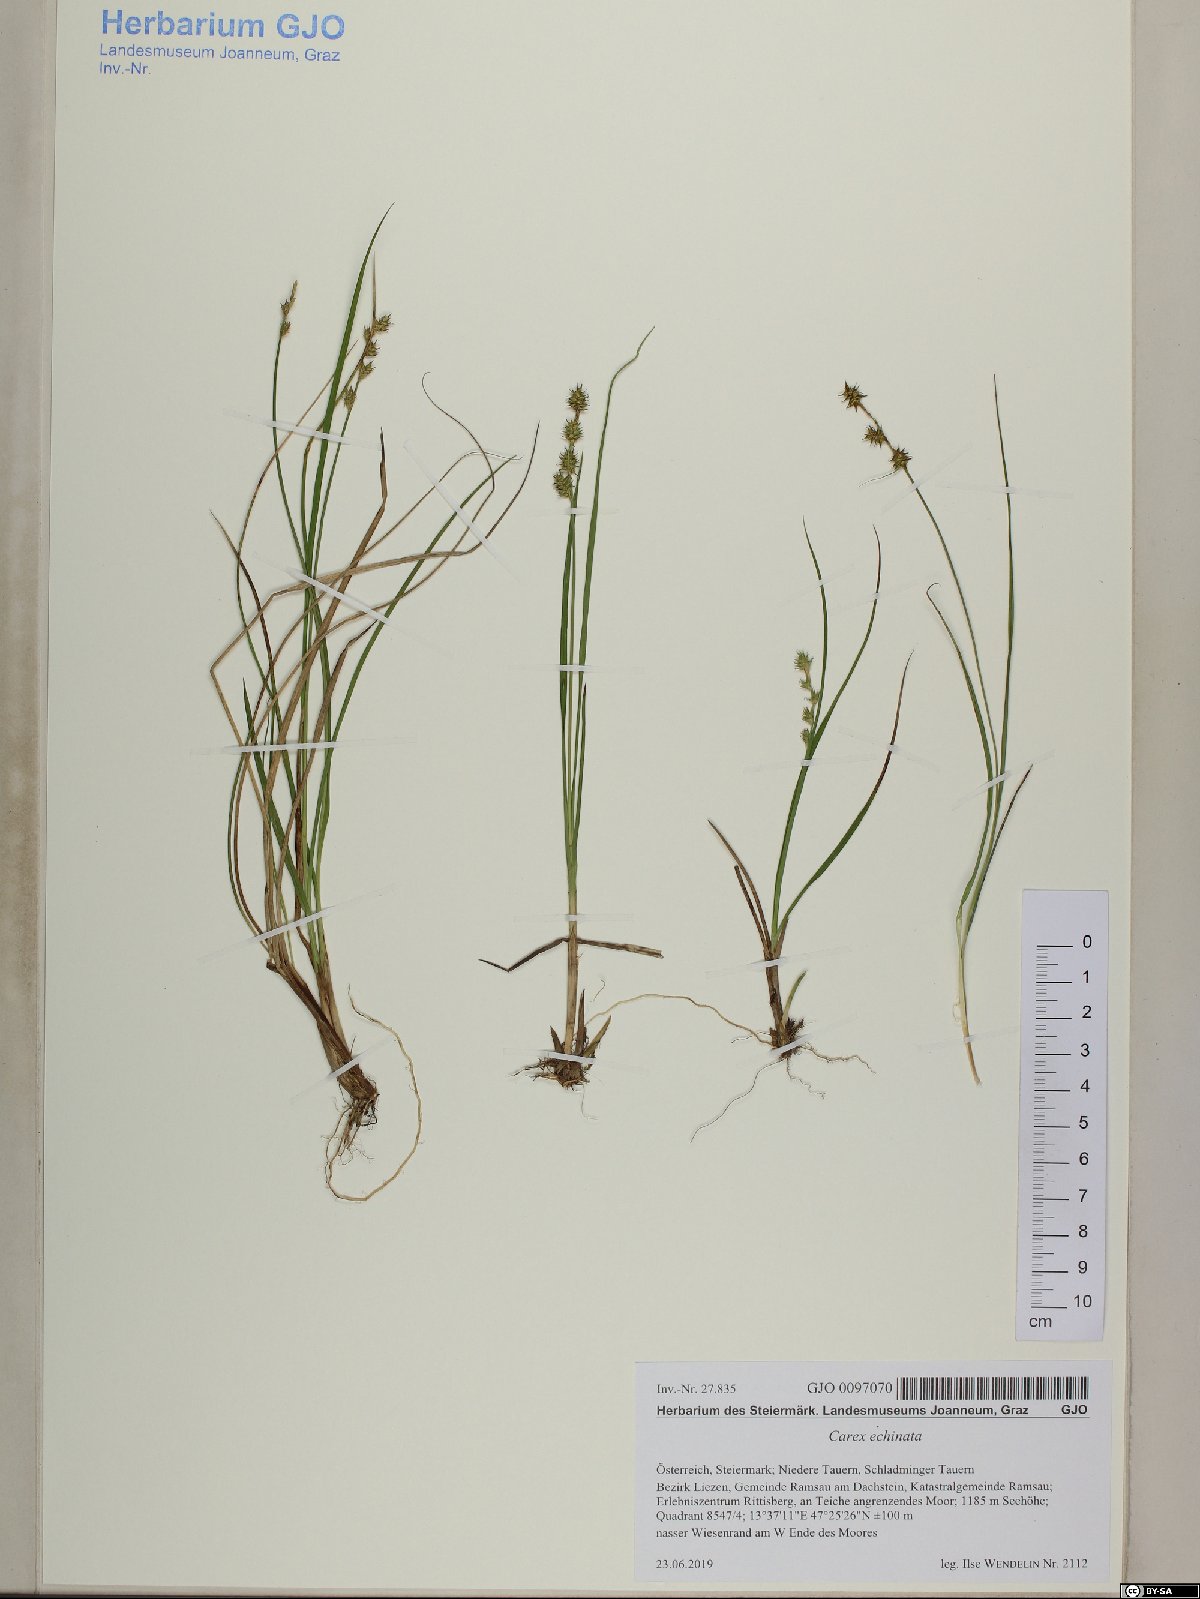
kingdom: Plantae
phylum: Tracheophyta
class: Liliopsida
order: Poales
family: Cyperaceae
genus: Carex
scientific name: Carex echinata
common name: Star sedge
